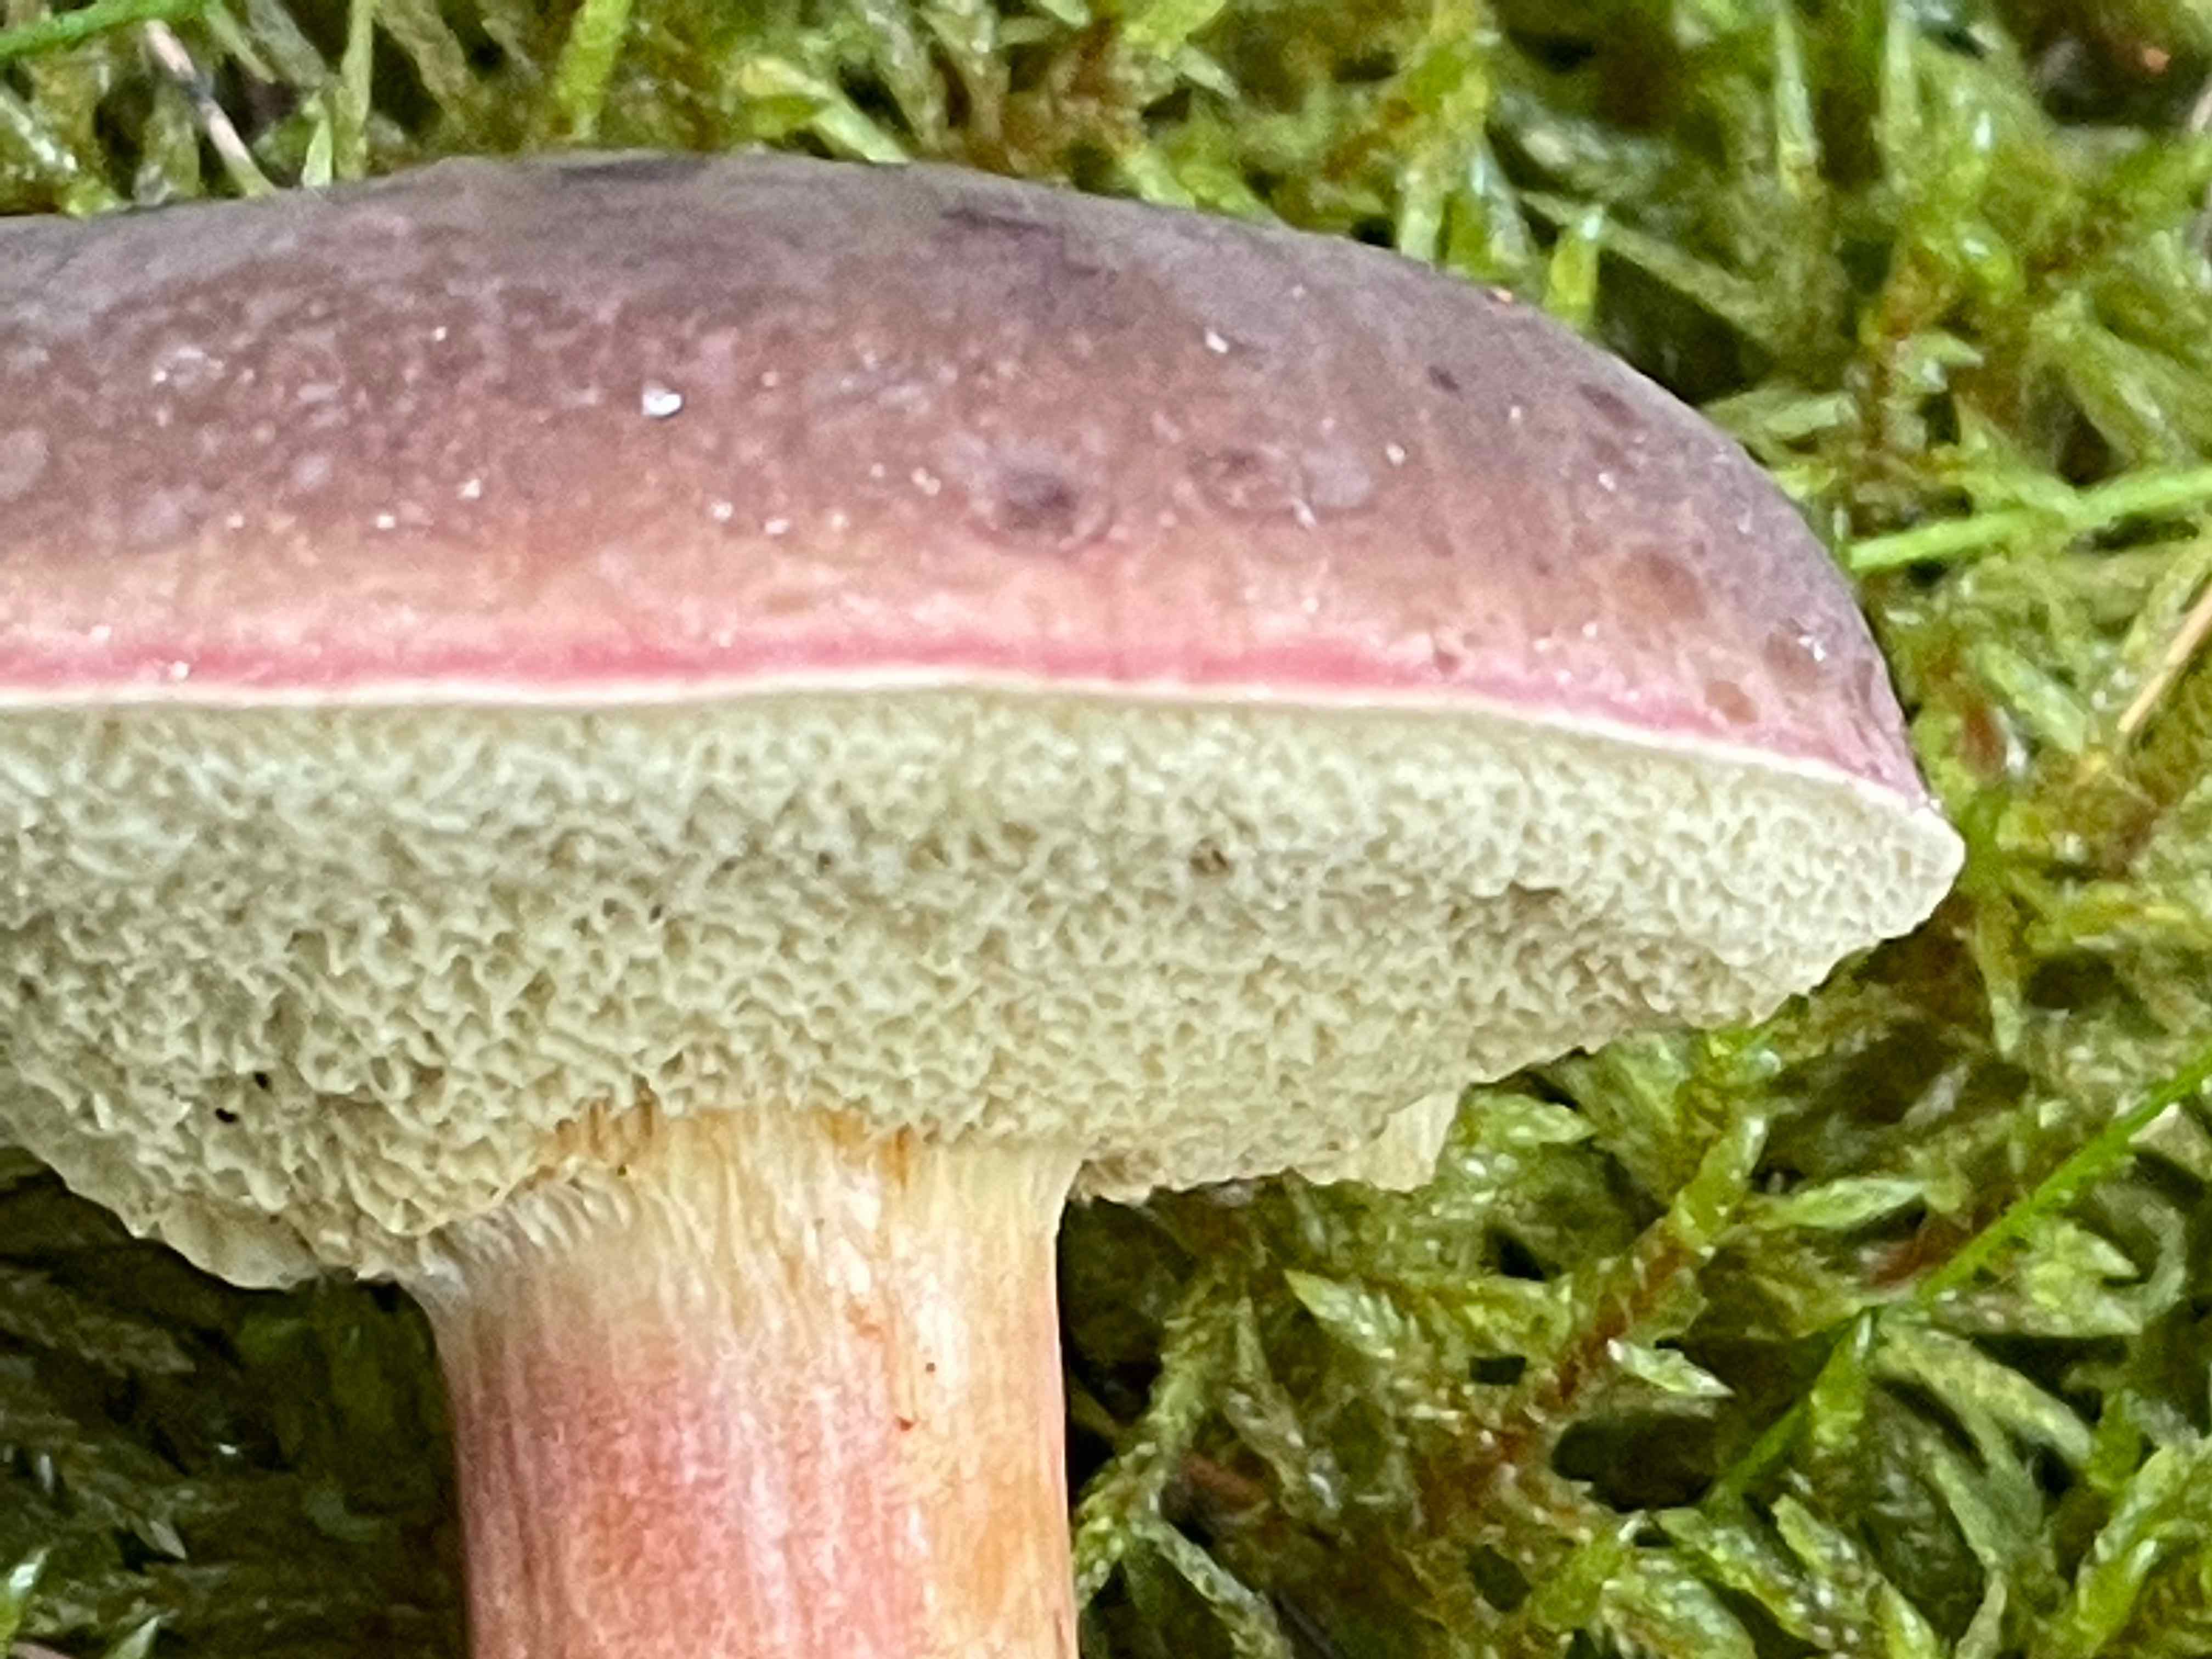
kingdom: Fungi
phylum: Basidiomycota
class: Agaricomycetes
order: Boletales
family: Boletaceae
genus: Xerocomellus
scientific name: Xerocomellus pruinatus
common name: dugget rørhat
